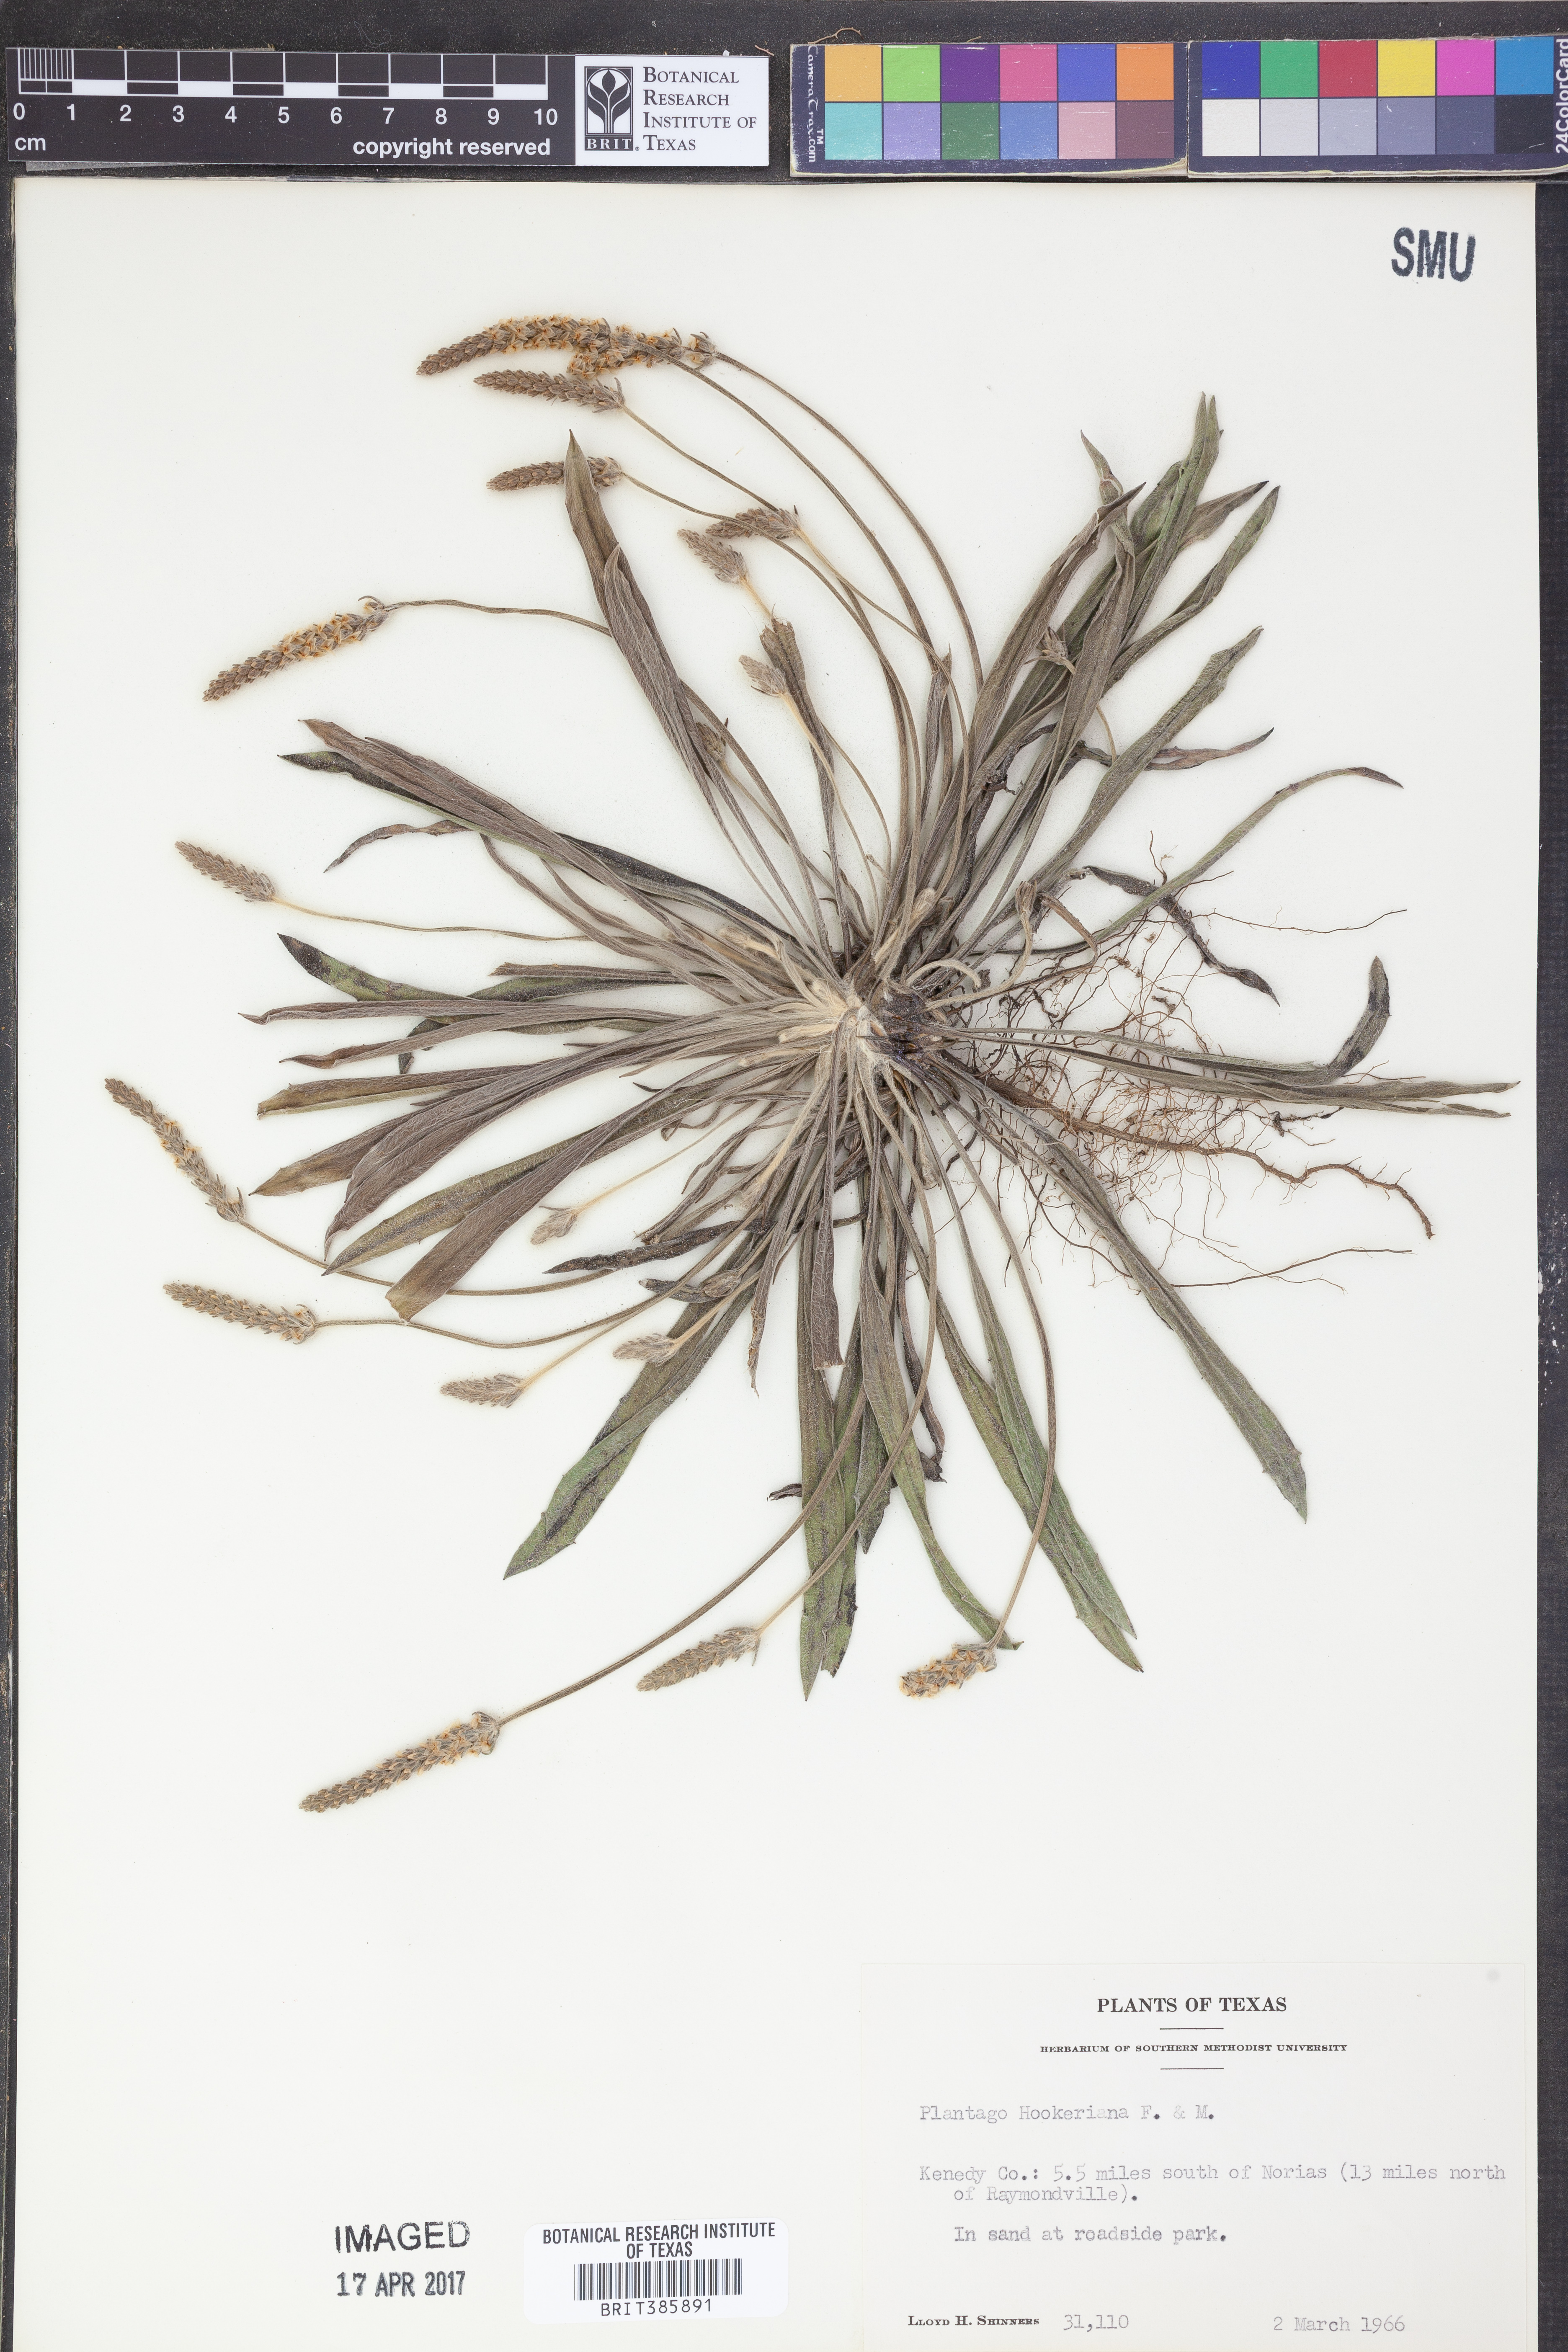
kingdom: Plantae
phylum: Tracheophyta
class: Magnoliopsida
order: Lamiales
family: Plantaginaceae
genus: Plantago
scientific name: Plantago hookeriana
